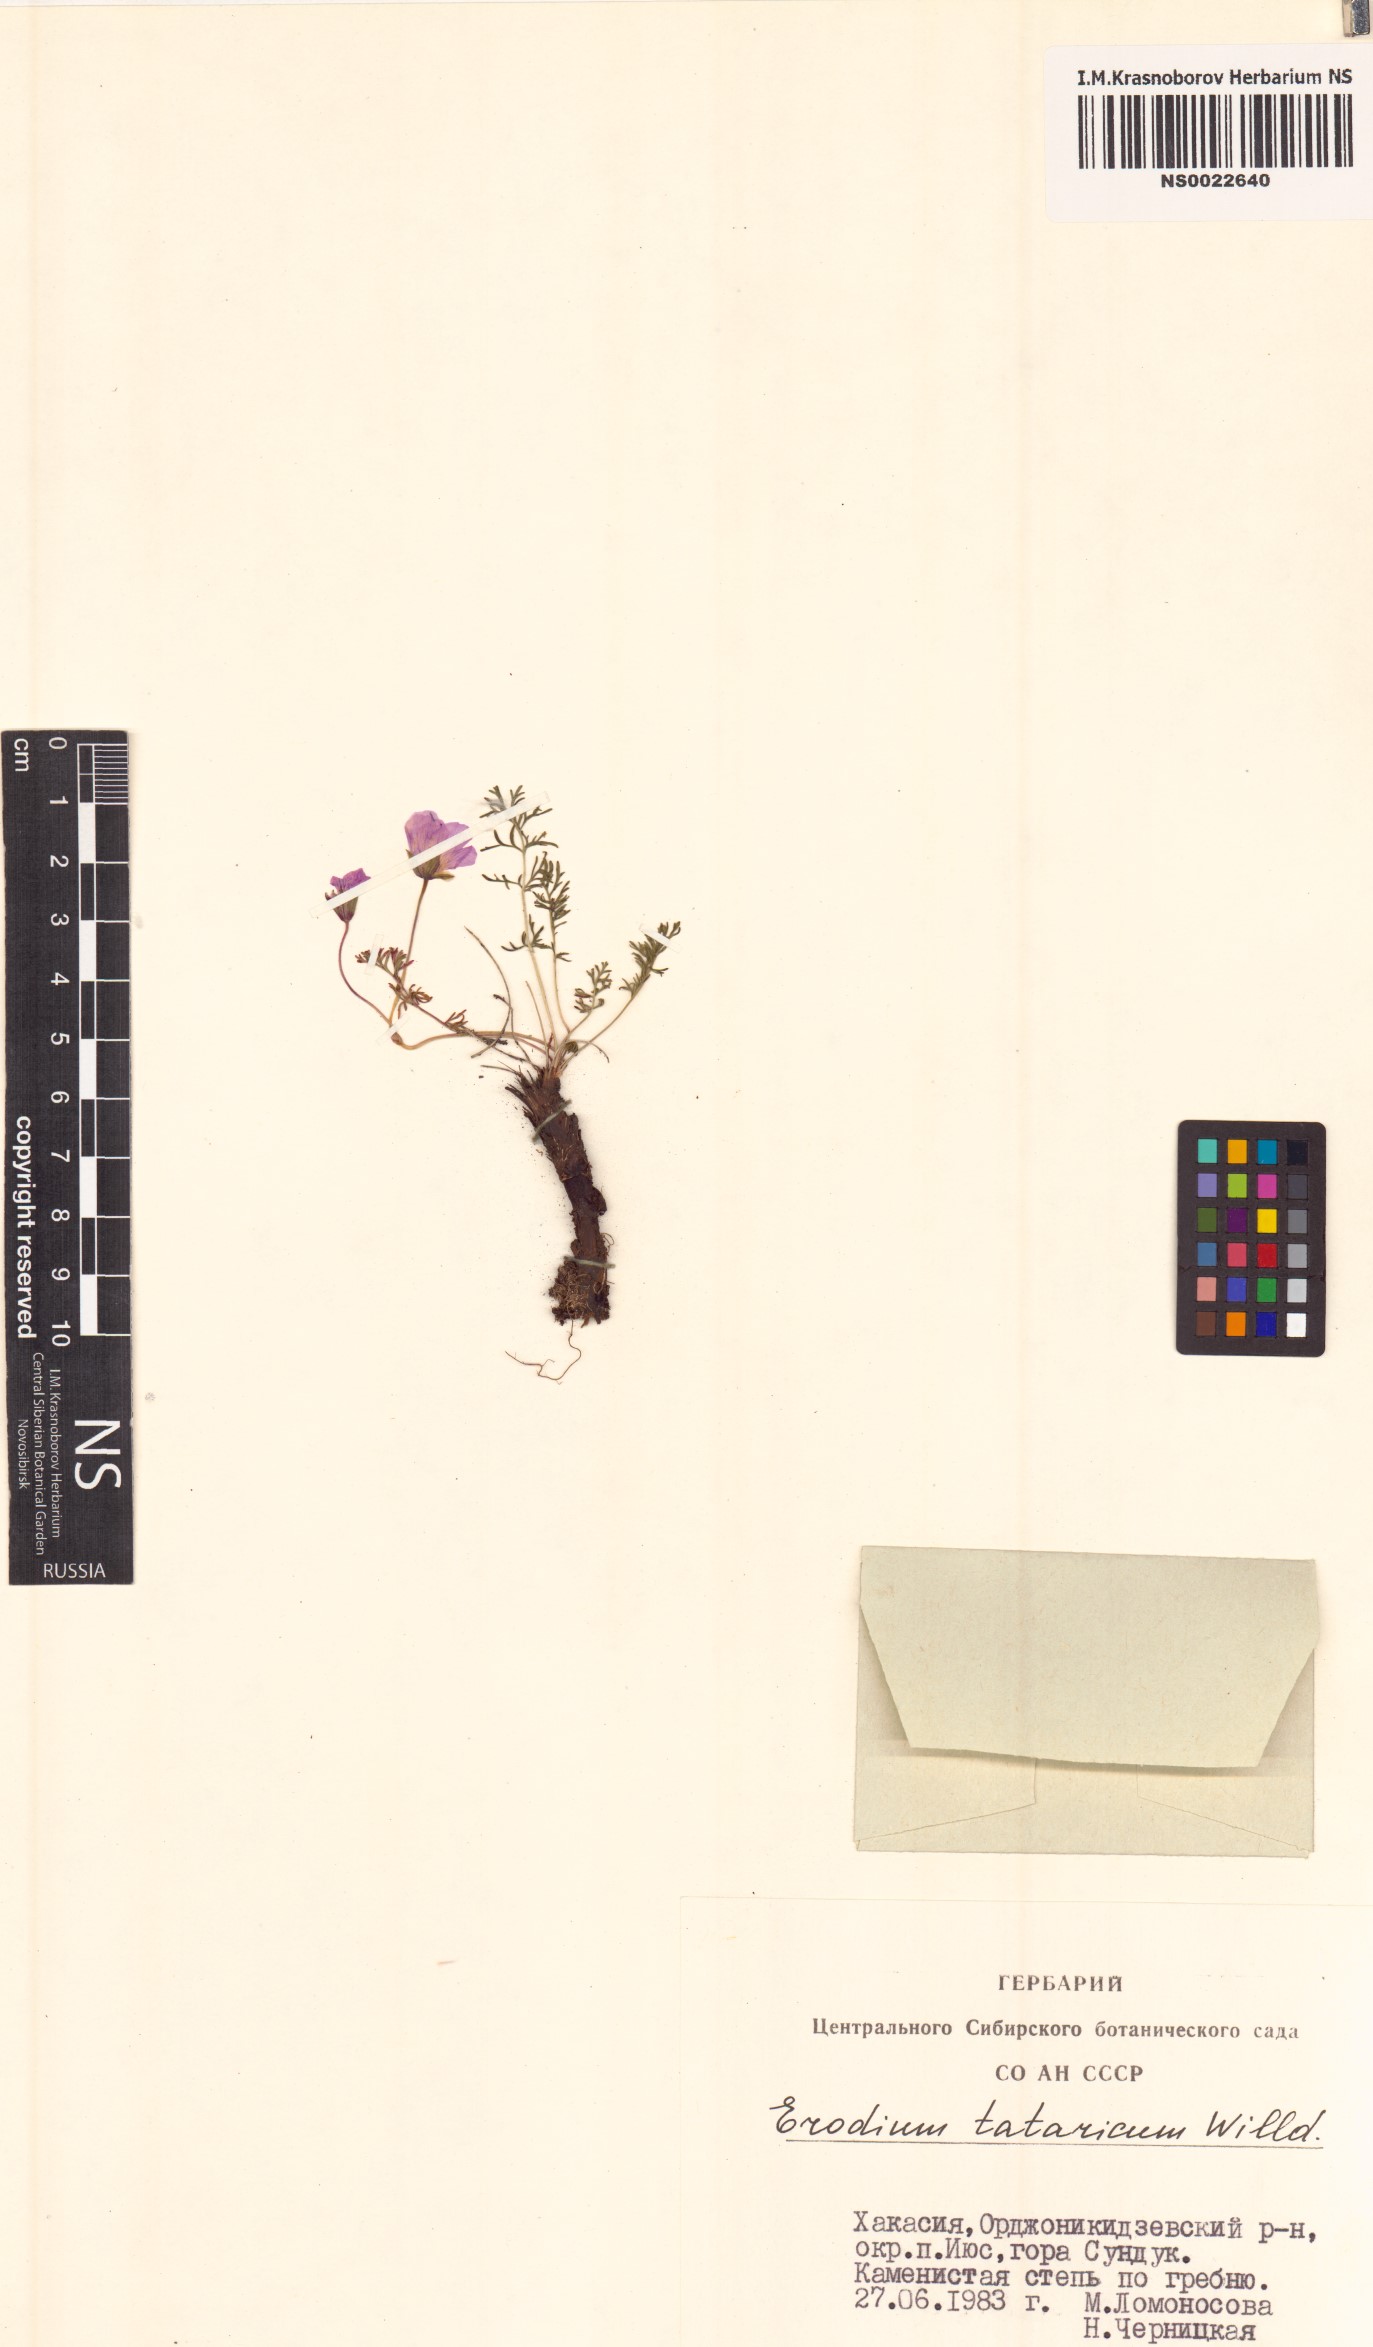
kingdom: Plantae
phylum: Tracheophyta
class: Magnoliopsida
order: Geraniales
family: Geraniaceae
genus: Erodium
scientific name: Erodium tataricum
